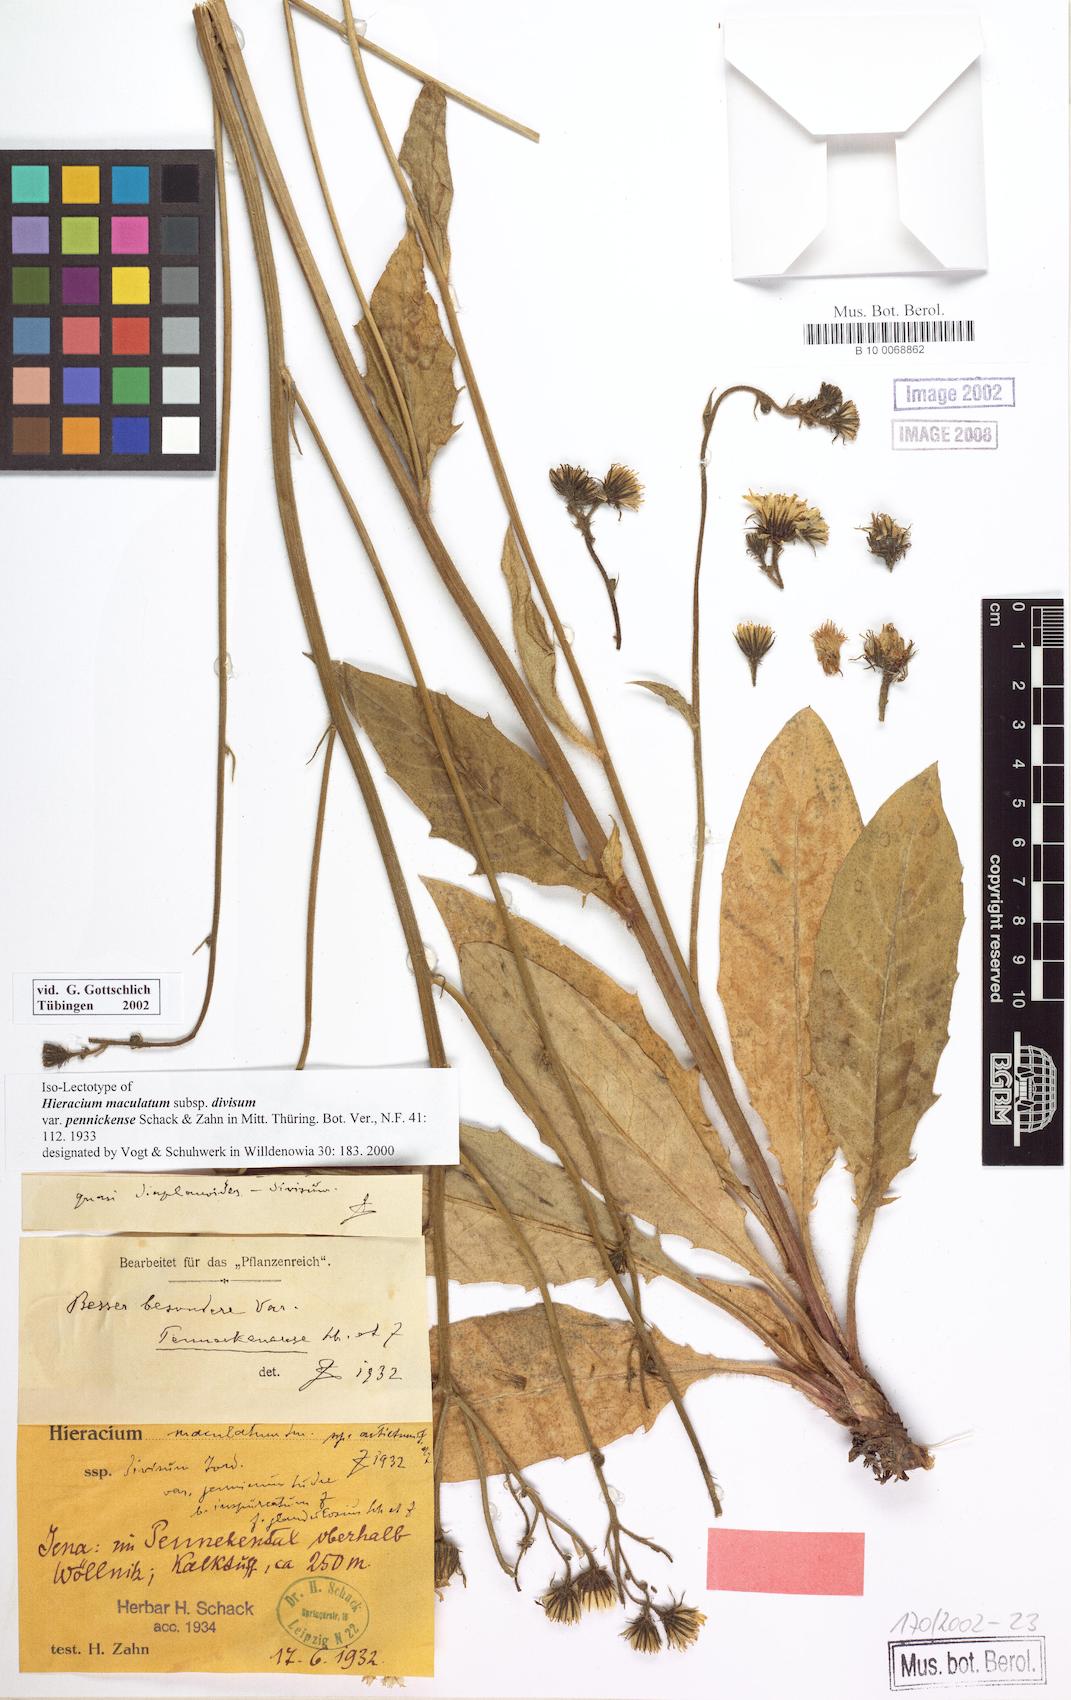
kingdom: Plantae
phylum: Tracheophyta
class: Magnoliopsida
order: Asterales
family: Asteraceae
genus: Hieracium
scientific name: Hieracium maculatum
